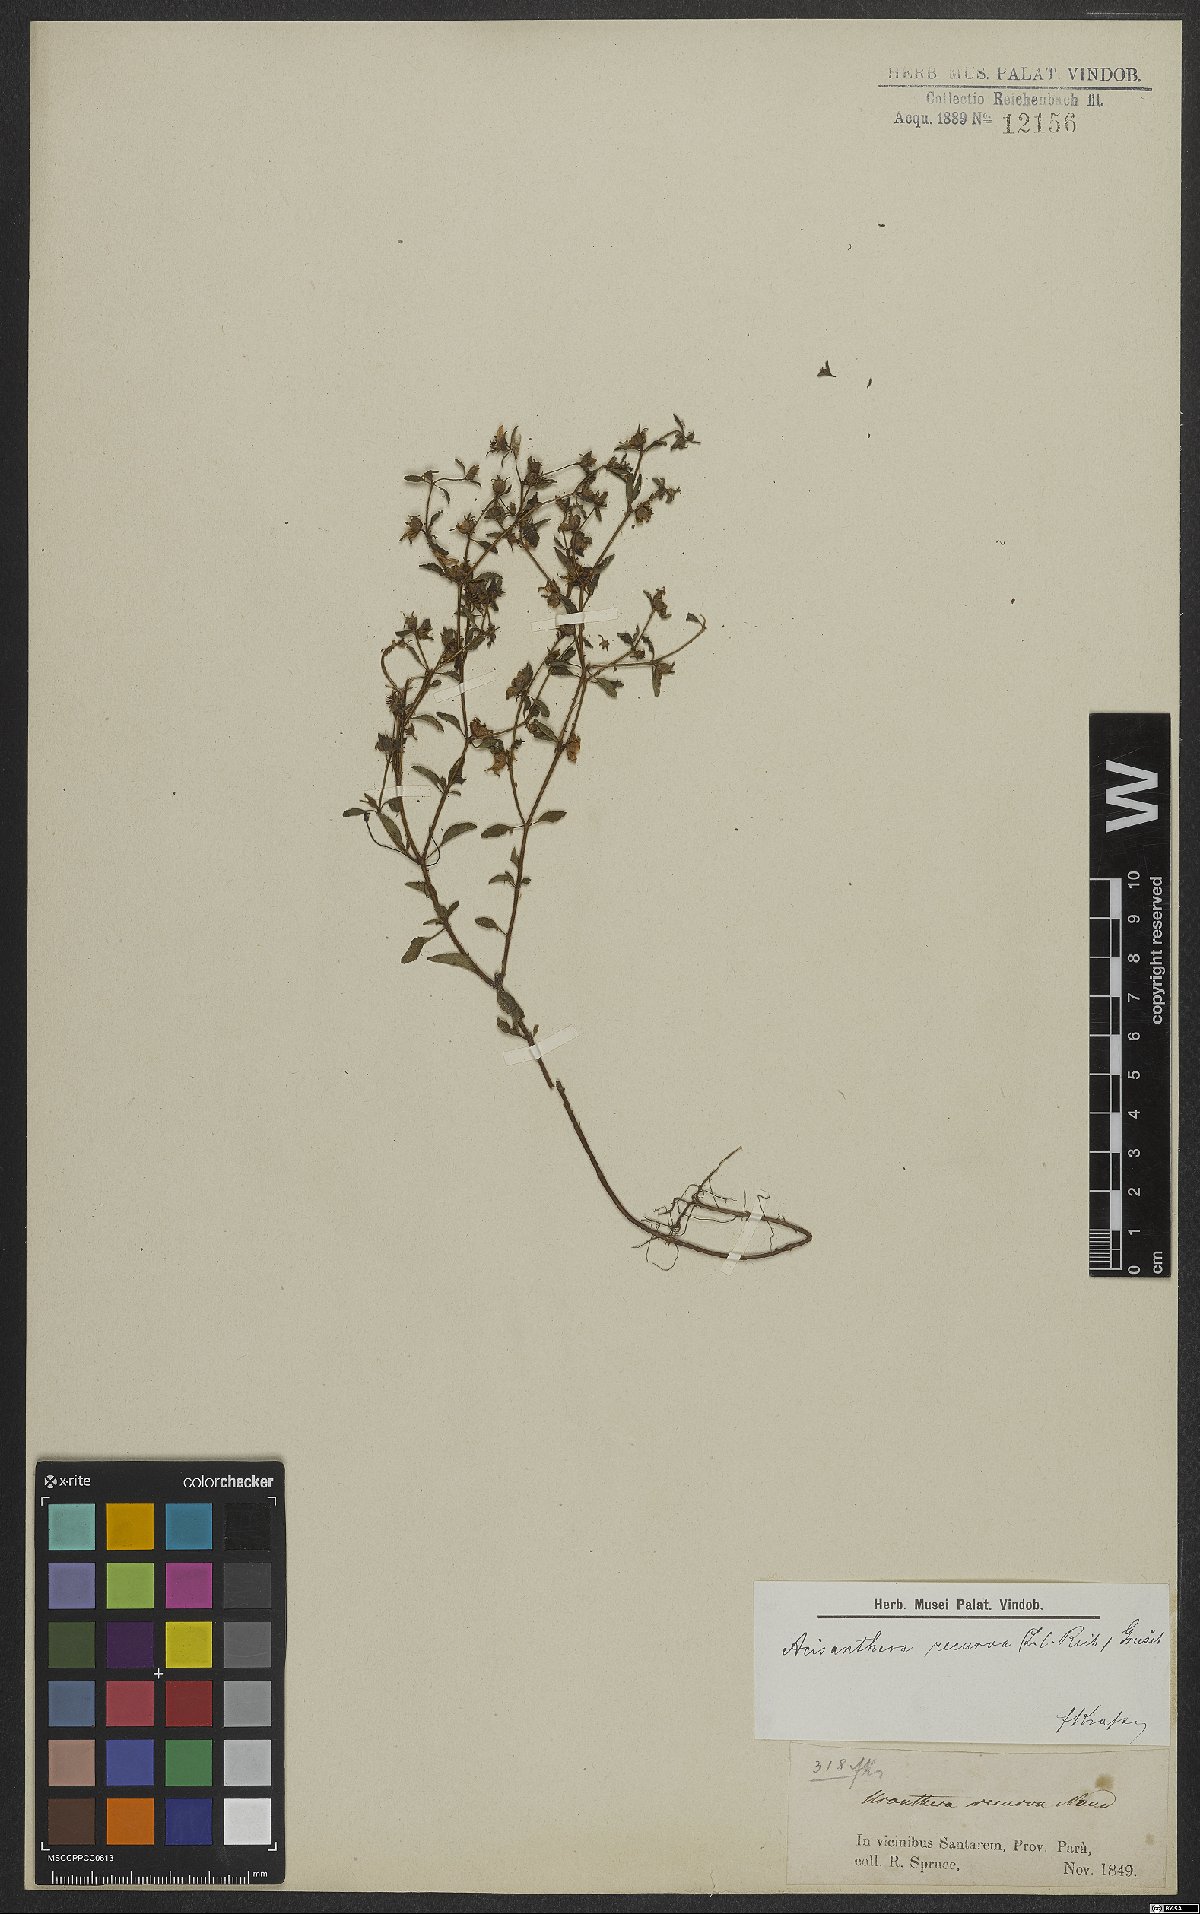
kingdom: Plantae
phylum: Tracheophyta
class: Magnoliopsida
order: Myrtales
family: Melastomataceae
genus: Acisanthera
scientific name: Acisanthera quadrata
